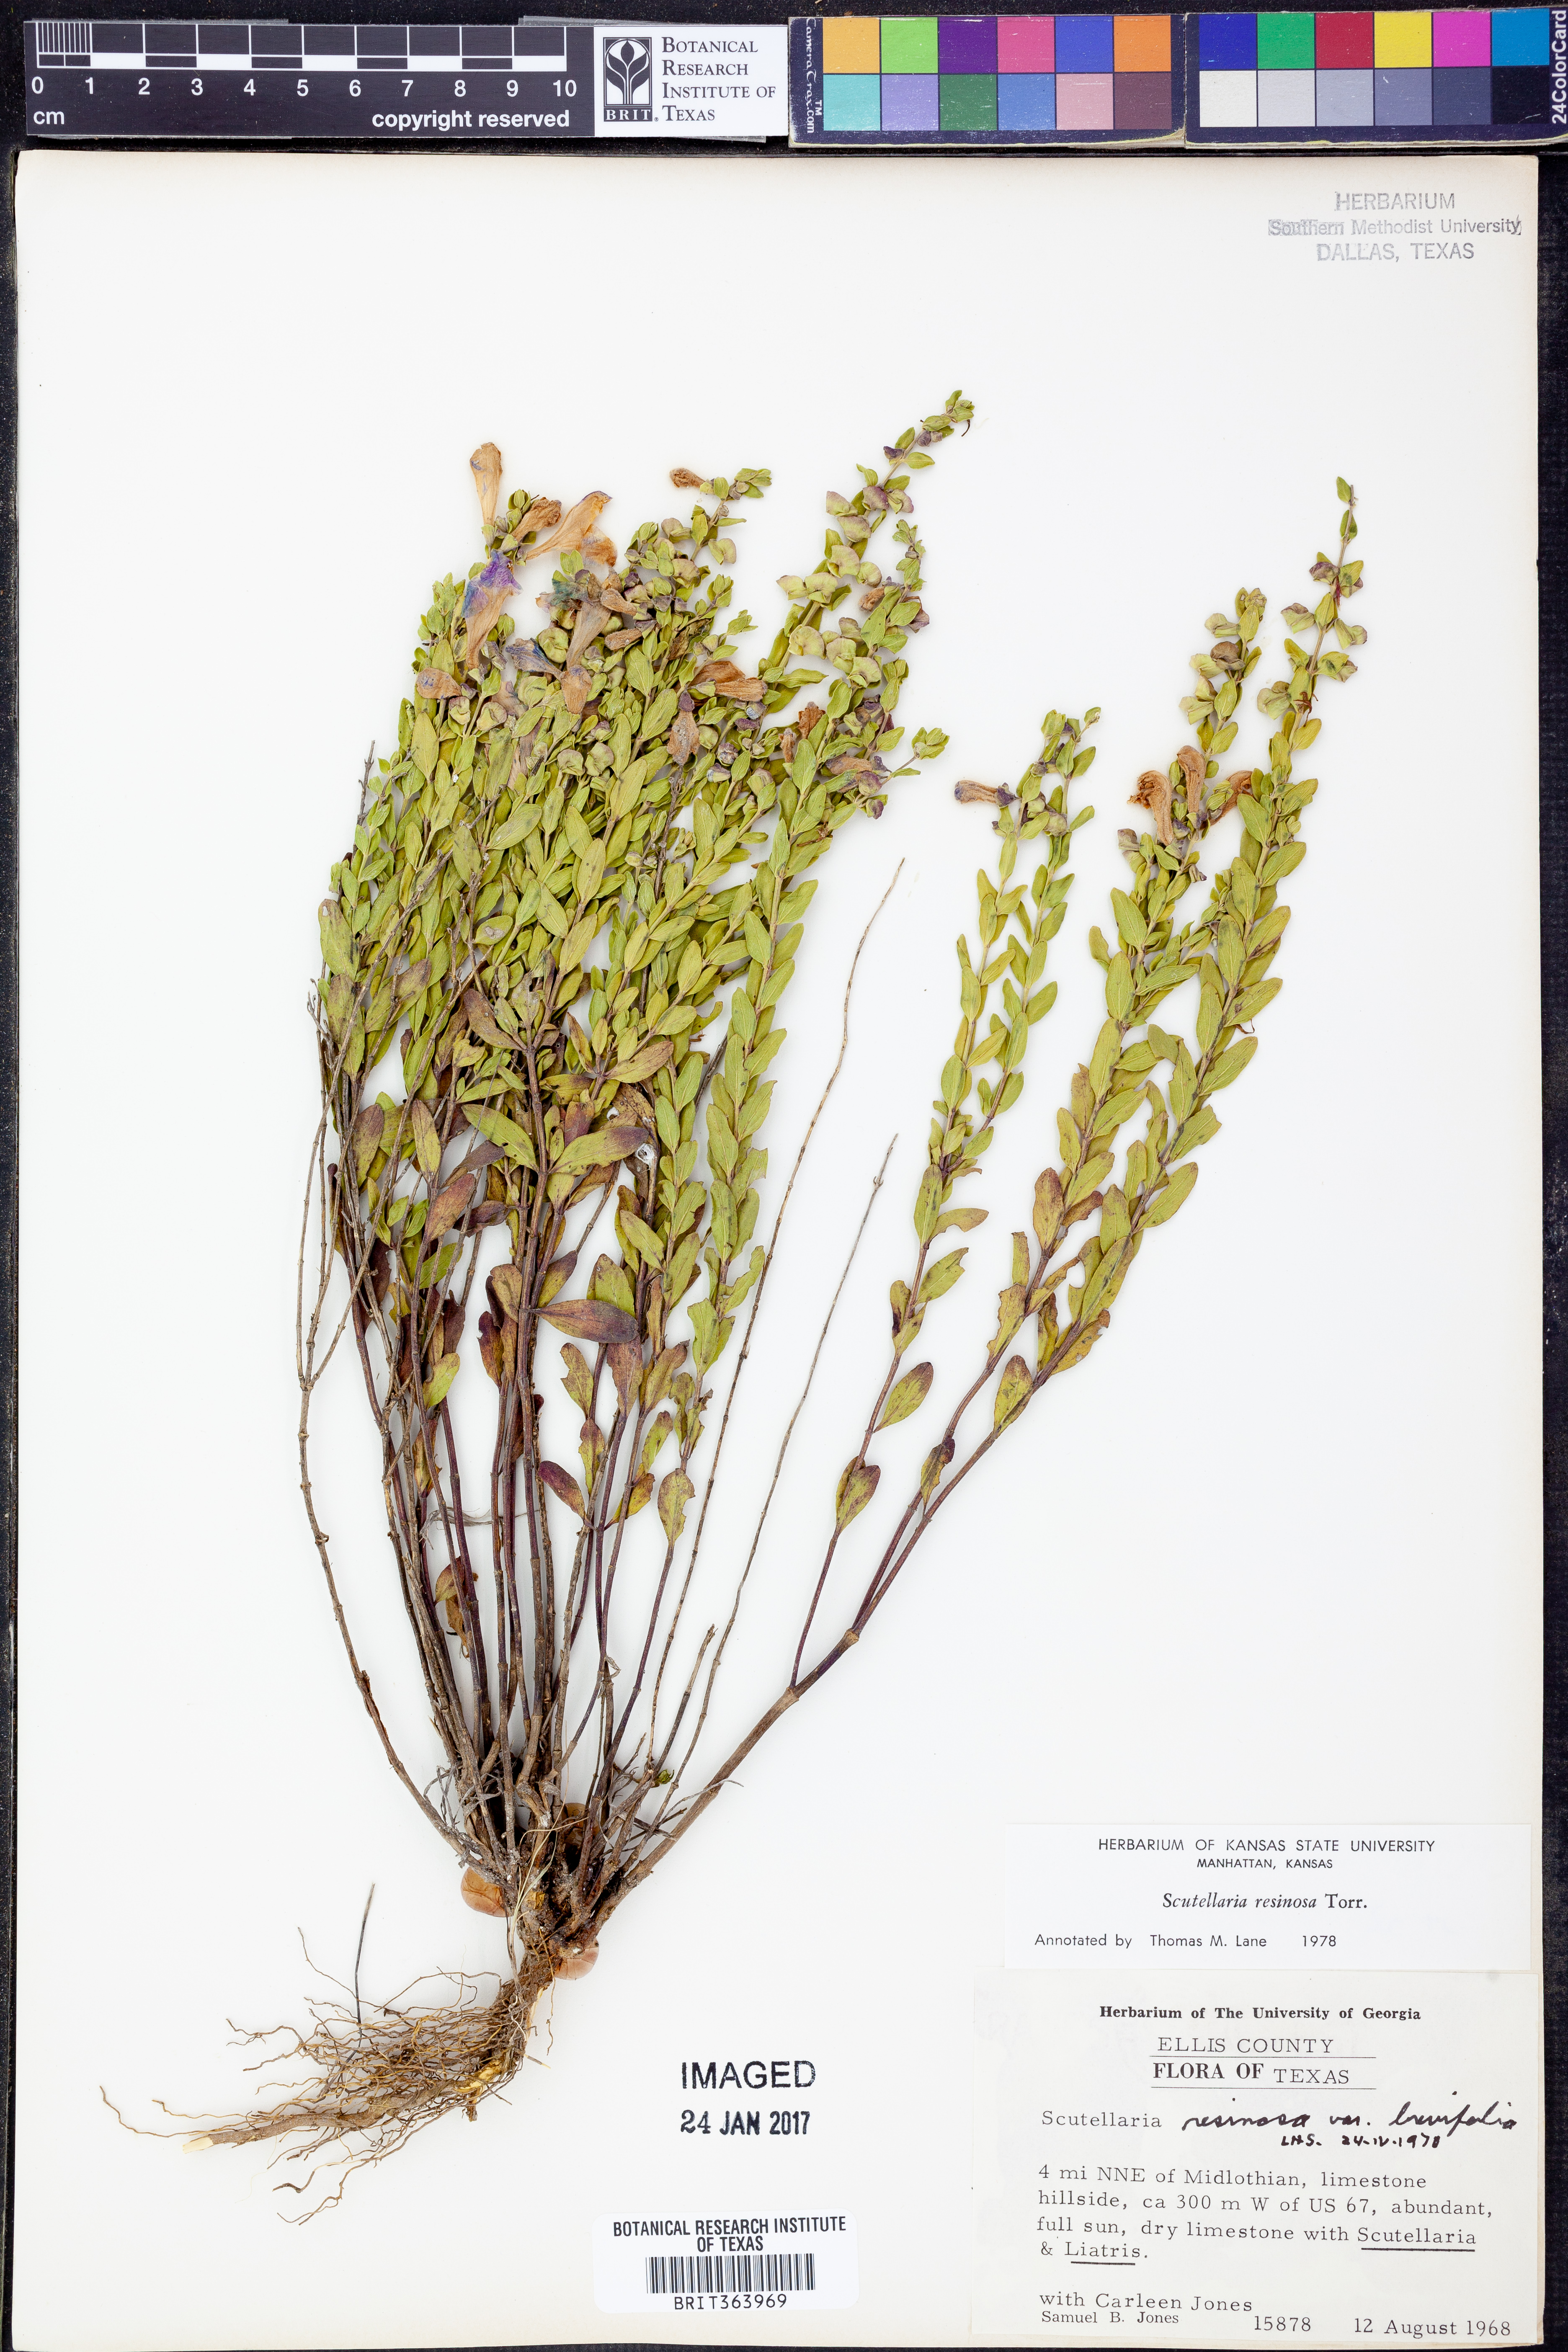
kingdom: Plantae
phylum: Tracheophyta
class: Magnoliopsida
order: Lamiales
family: Lamiaceae
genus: Scutellaria
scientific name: Scutellaria resinosa
